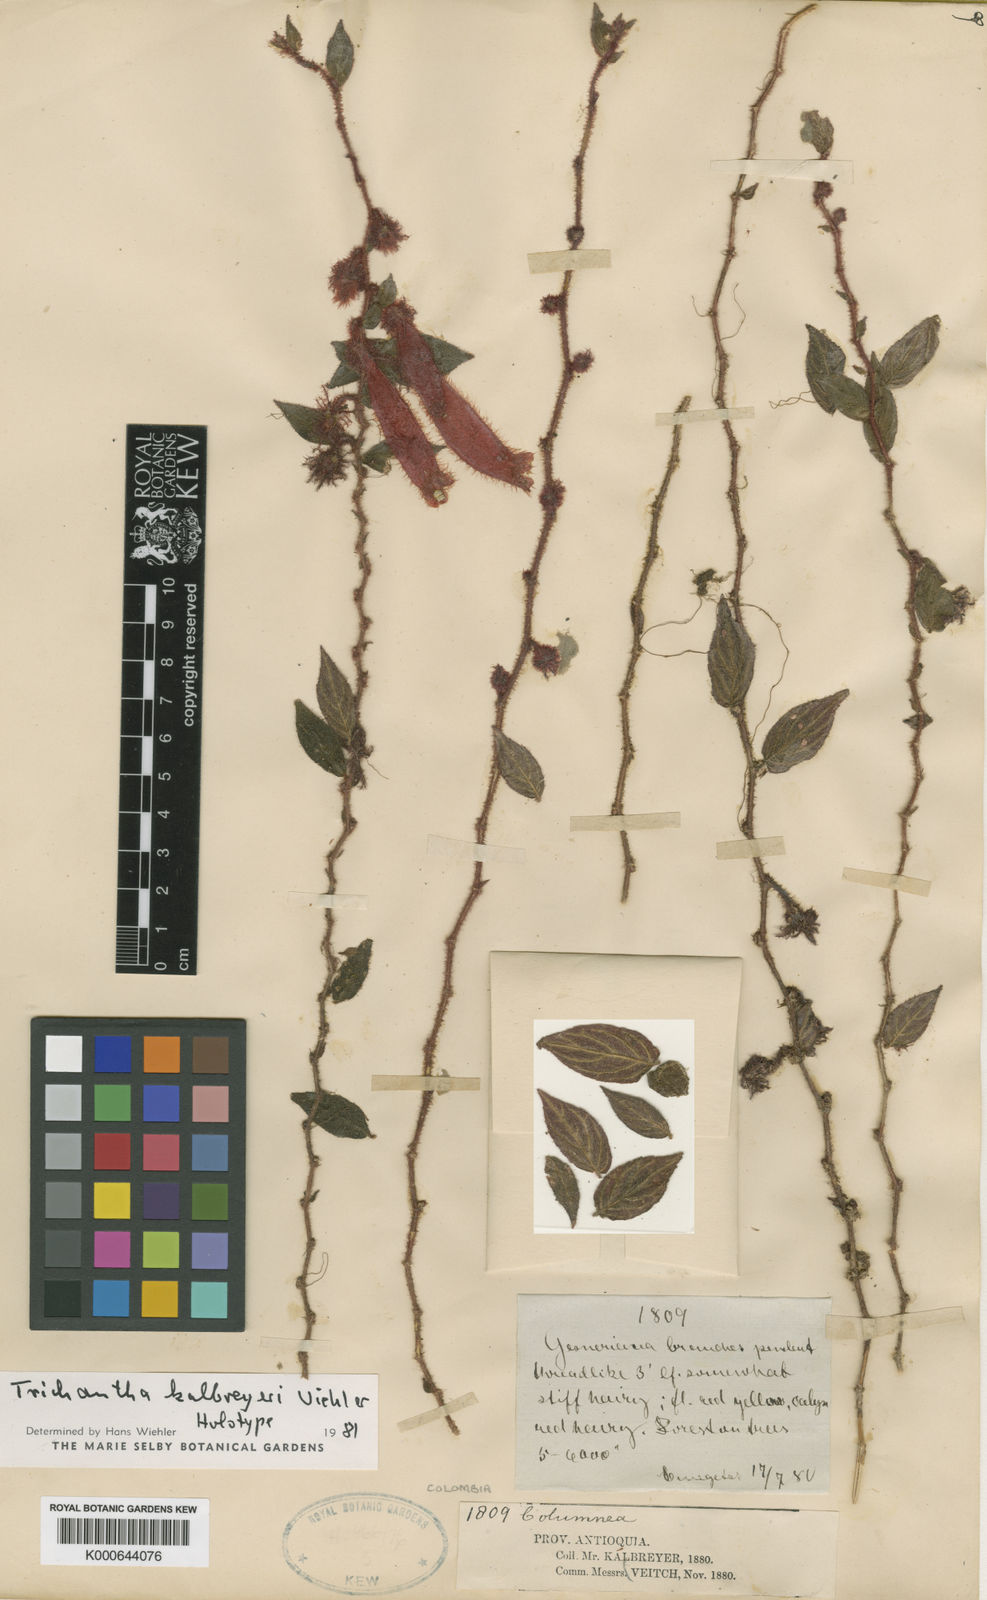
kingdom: Plantae
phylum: Tracheophyta
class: Magnoliopsida
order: Lamiales
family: Gesneriaceae
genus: Columnea
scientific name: Columnea kalbreyeriana
